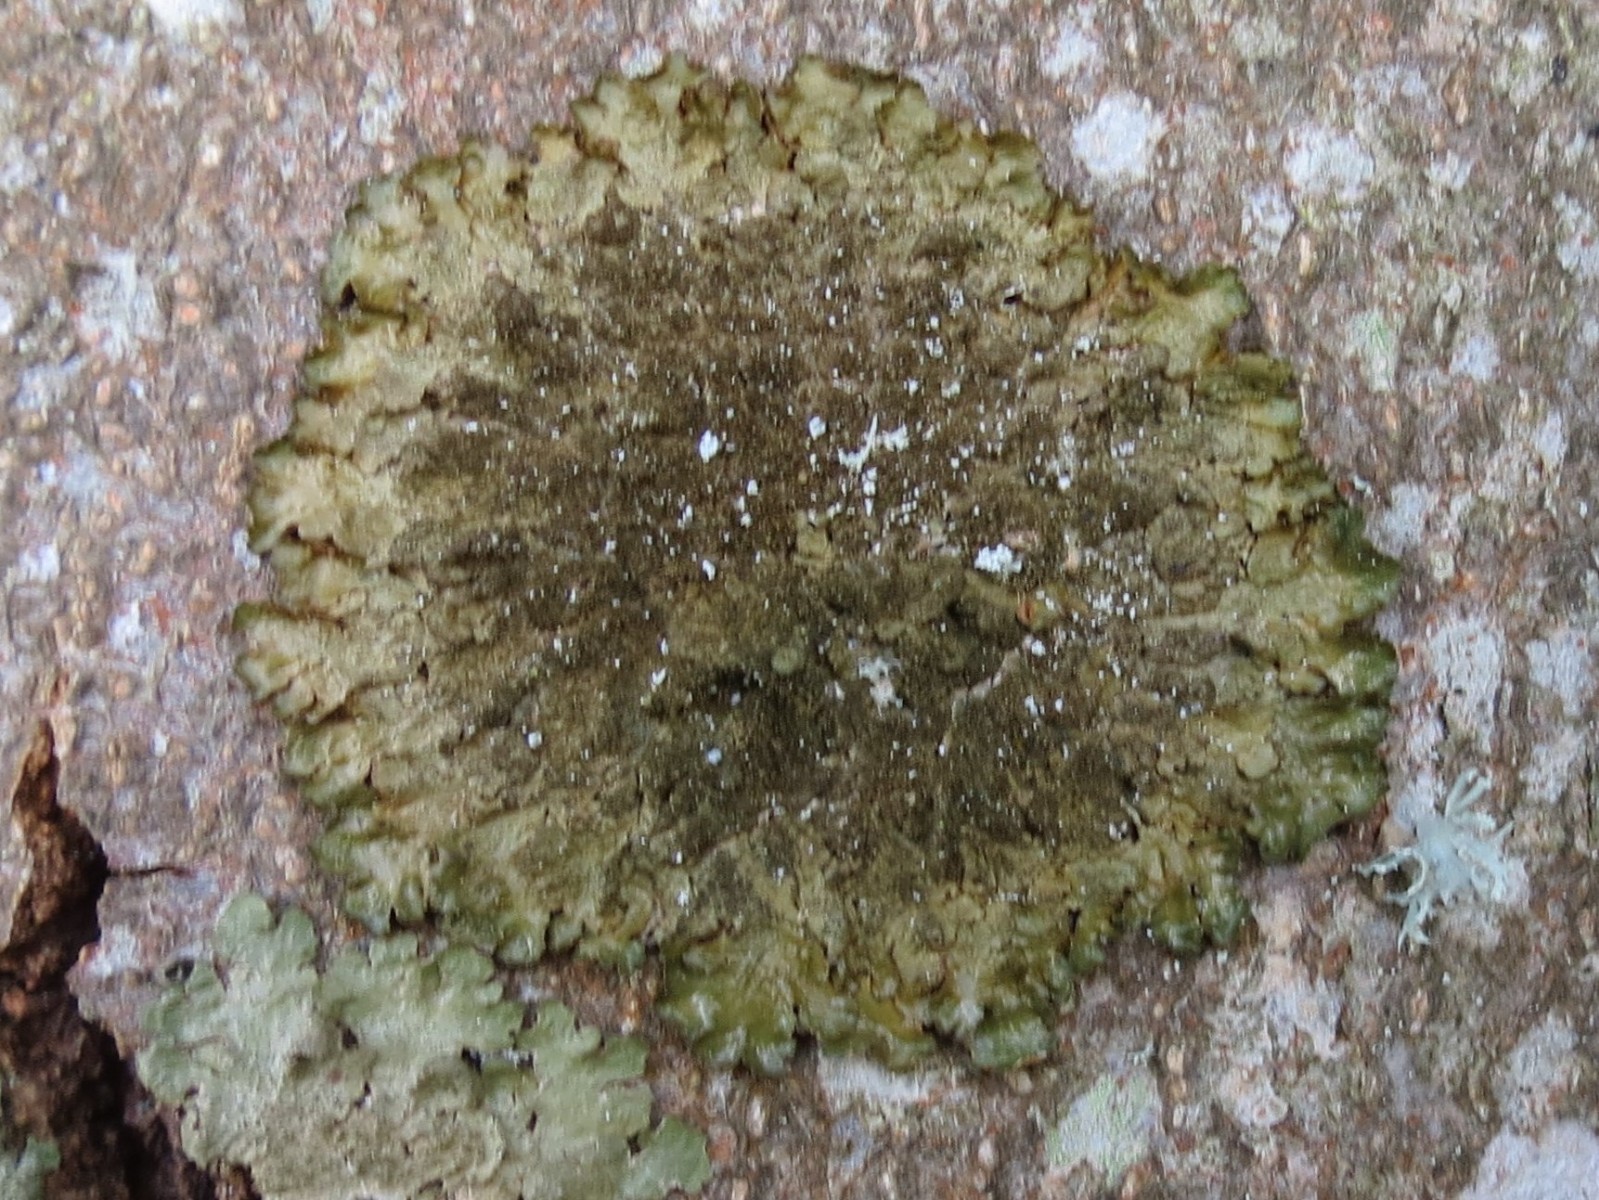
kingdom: Fungi
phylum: Ascomycota
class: Lecanoromycetes
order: Lecanorales
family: Parmeliaceae
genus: Melanelixia
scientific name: Melanelixia subaurifera
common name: guldpudret skållav
